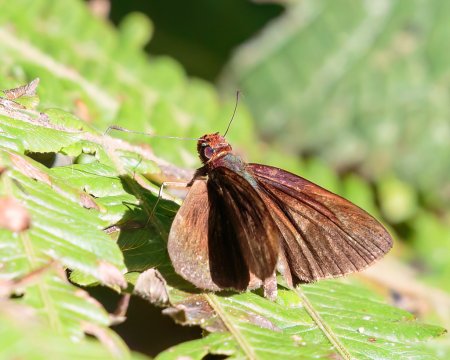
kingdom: Animalia
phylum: Arthropoda
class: Insecta
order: Lepidoptera
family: Hesperiidae
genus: Miltomiges
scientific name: Miltomiges cinnamomea
